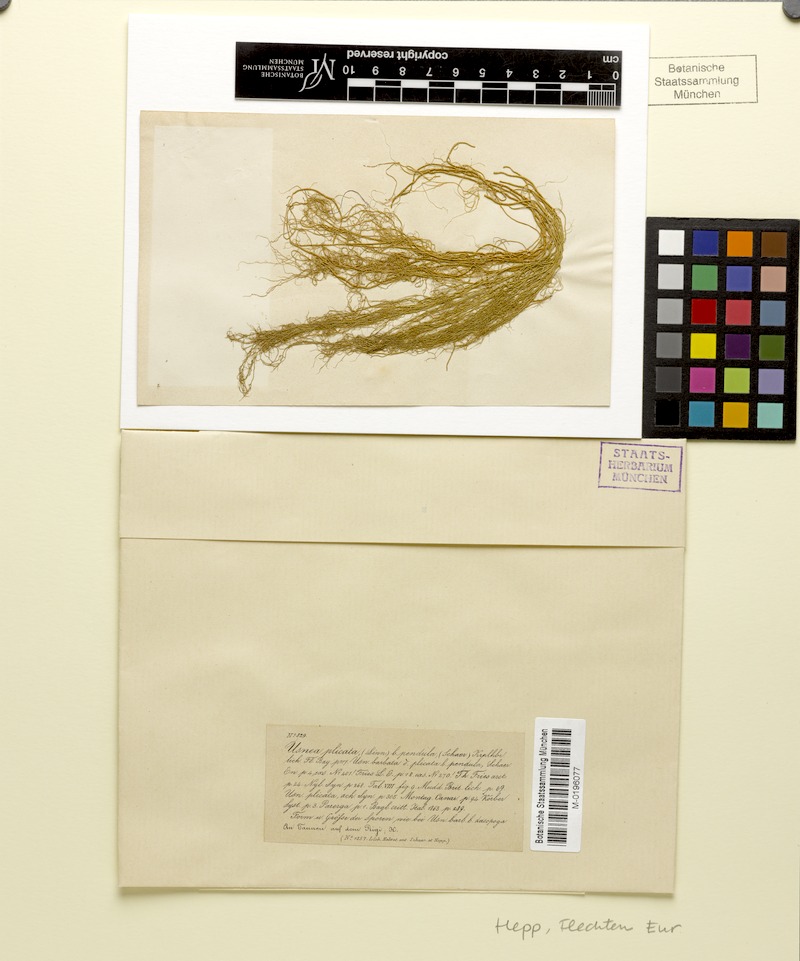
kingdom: Fungi
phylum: Ascomycota
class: Lecanoromycetes
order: Lecanorales
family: Parmeliaceae
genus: Usnea
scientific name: Usnea plicata
